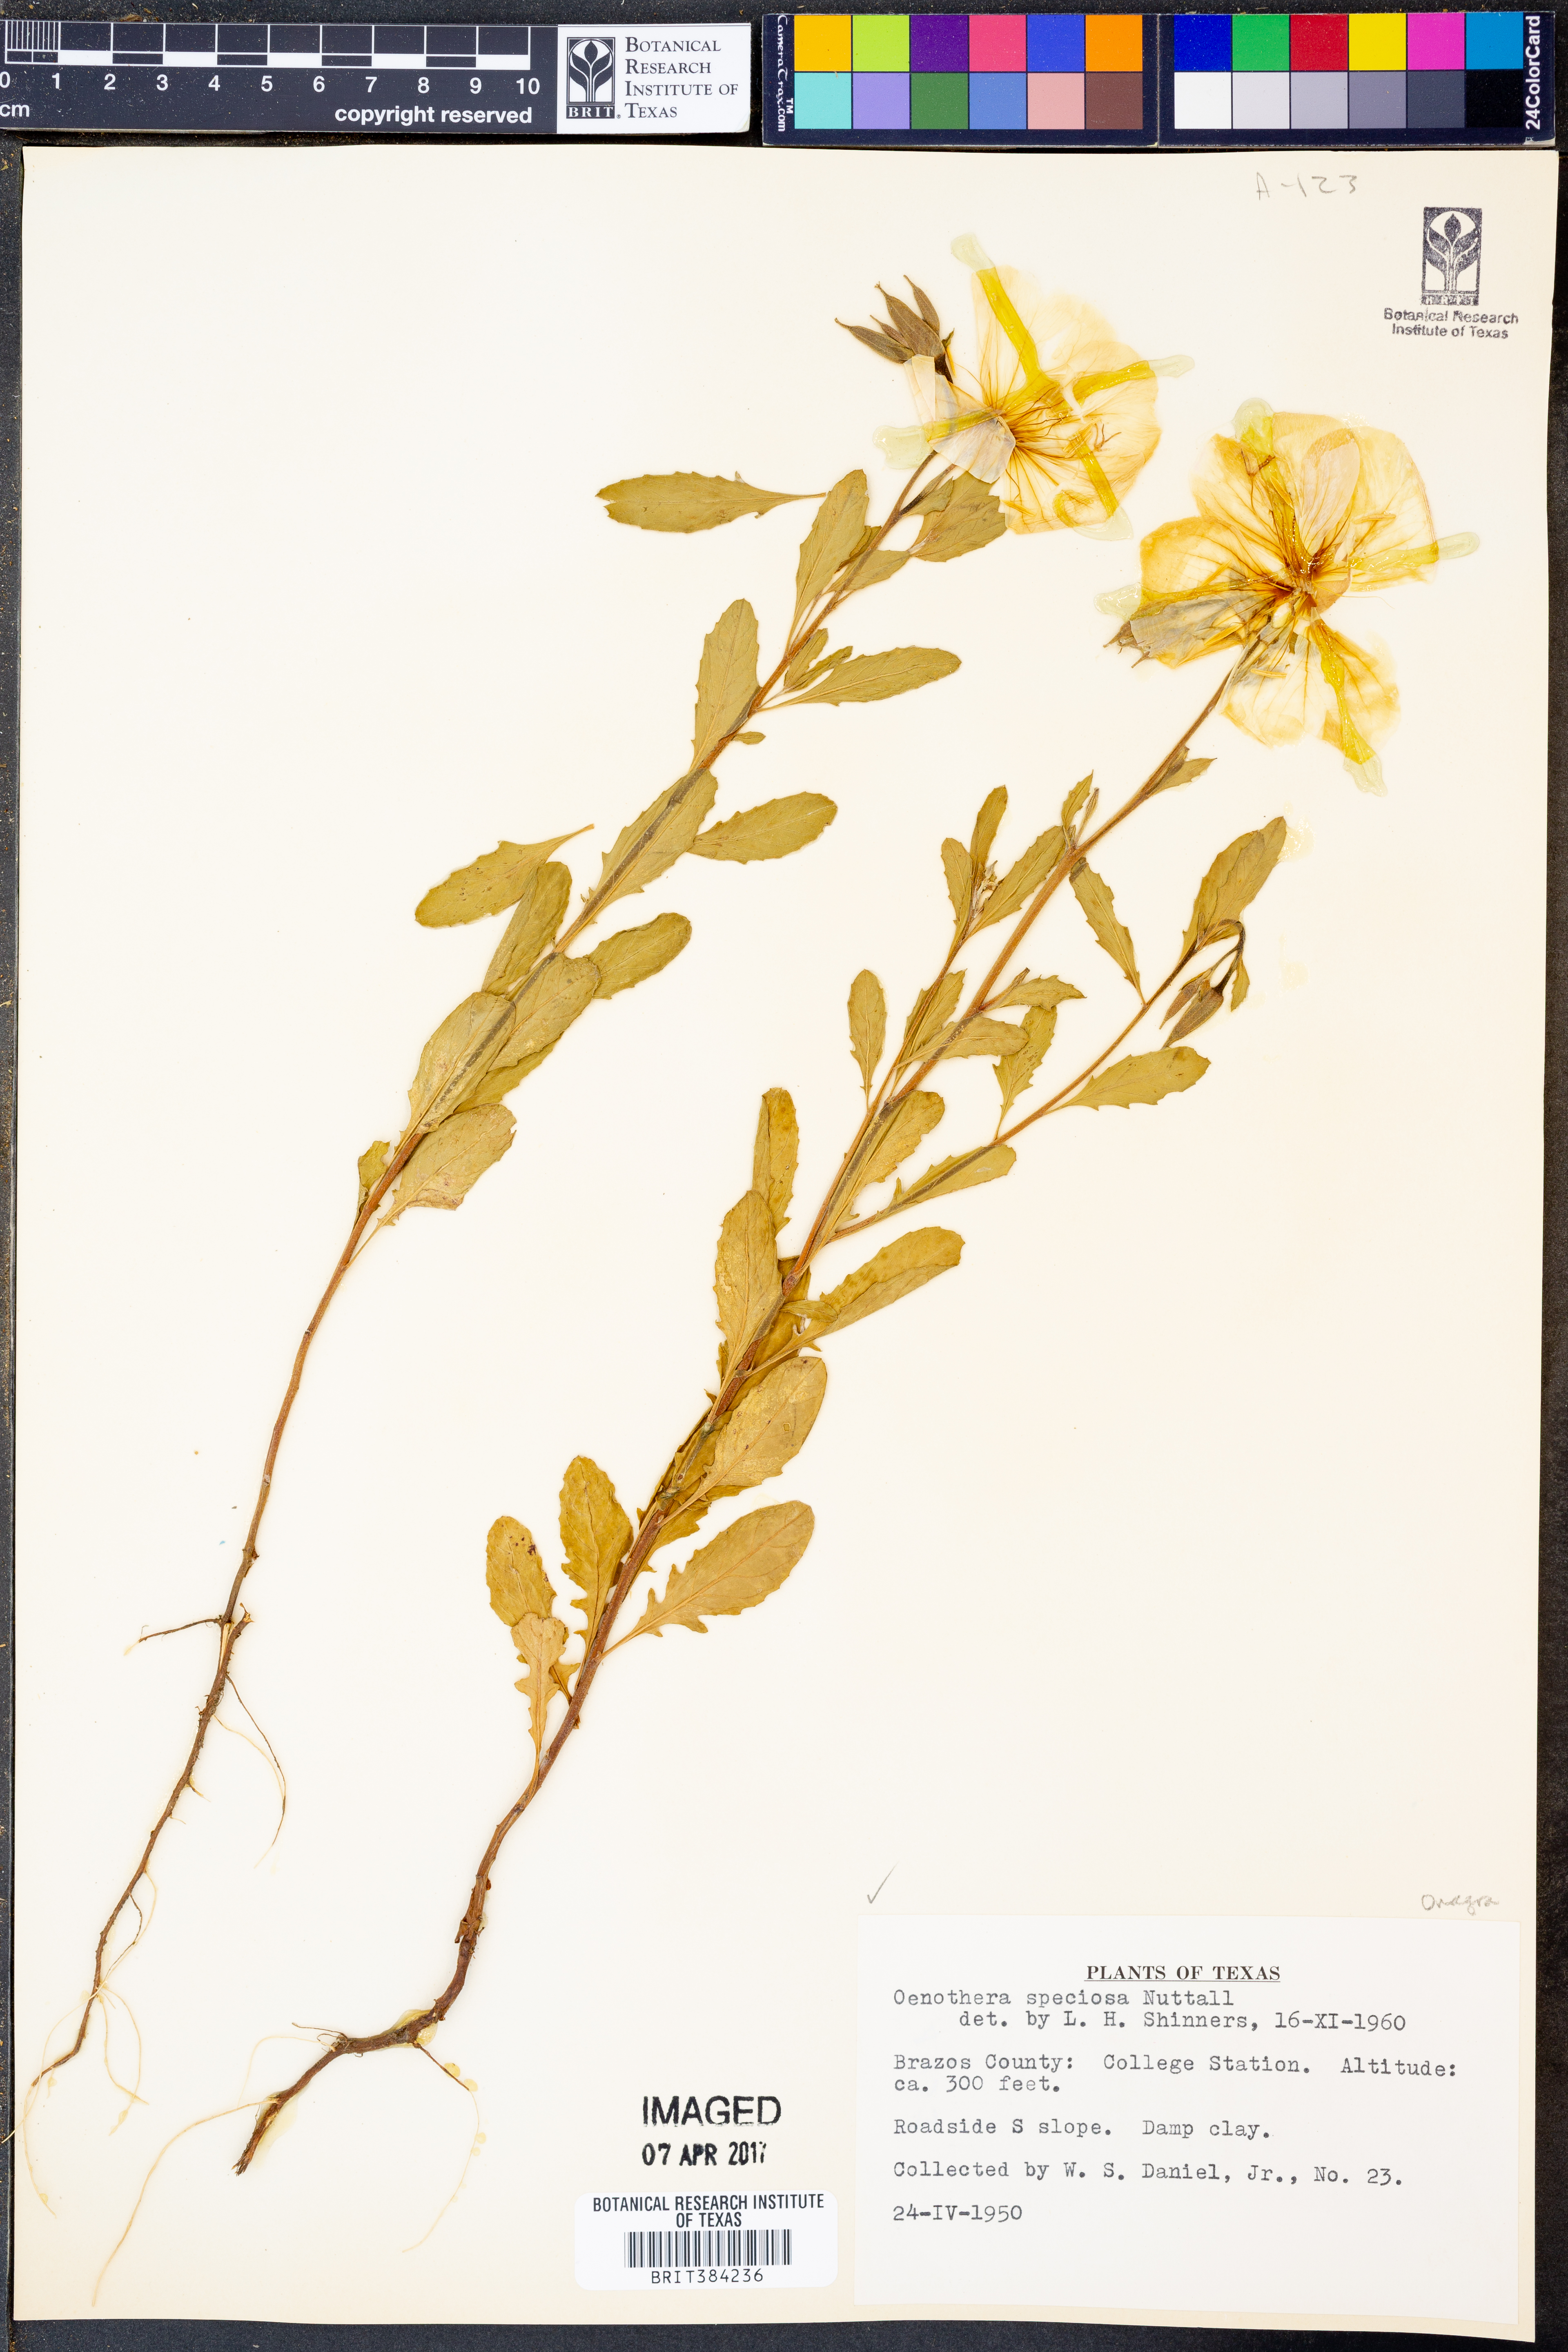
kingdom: Plantae
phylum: Tracheophyta
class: Magnoliopsida
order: Myrtales
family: Onagraceae
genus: Oenothera
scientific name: Oenothera speciosa
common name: White evening-primrose
